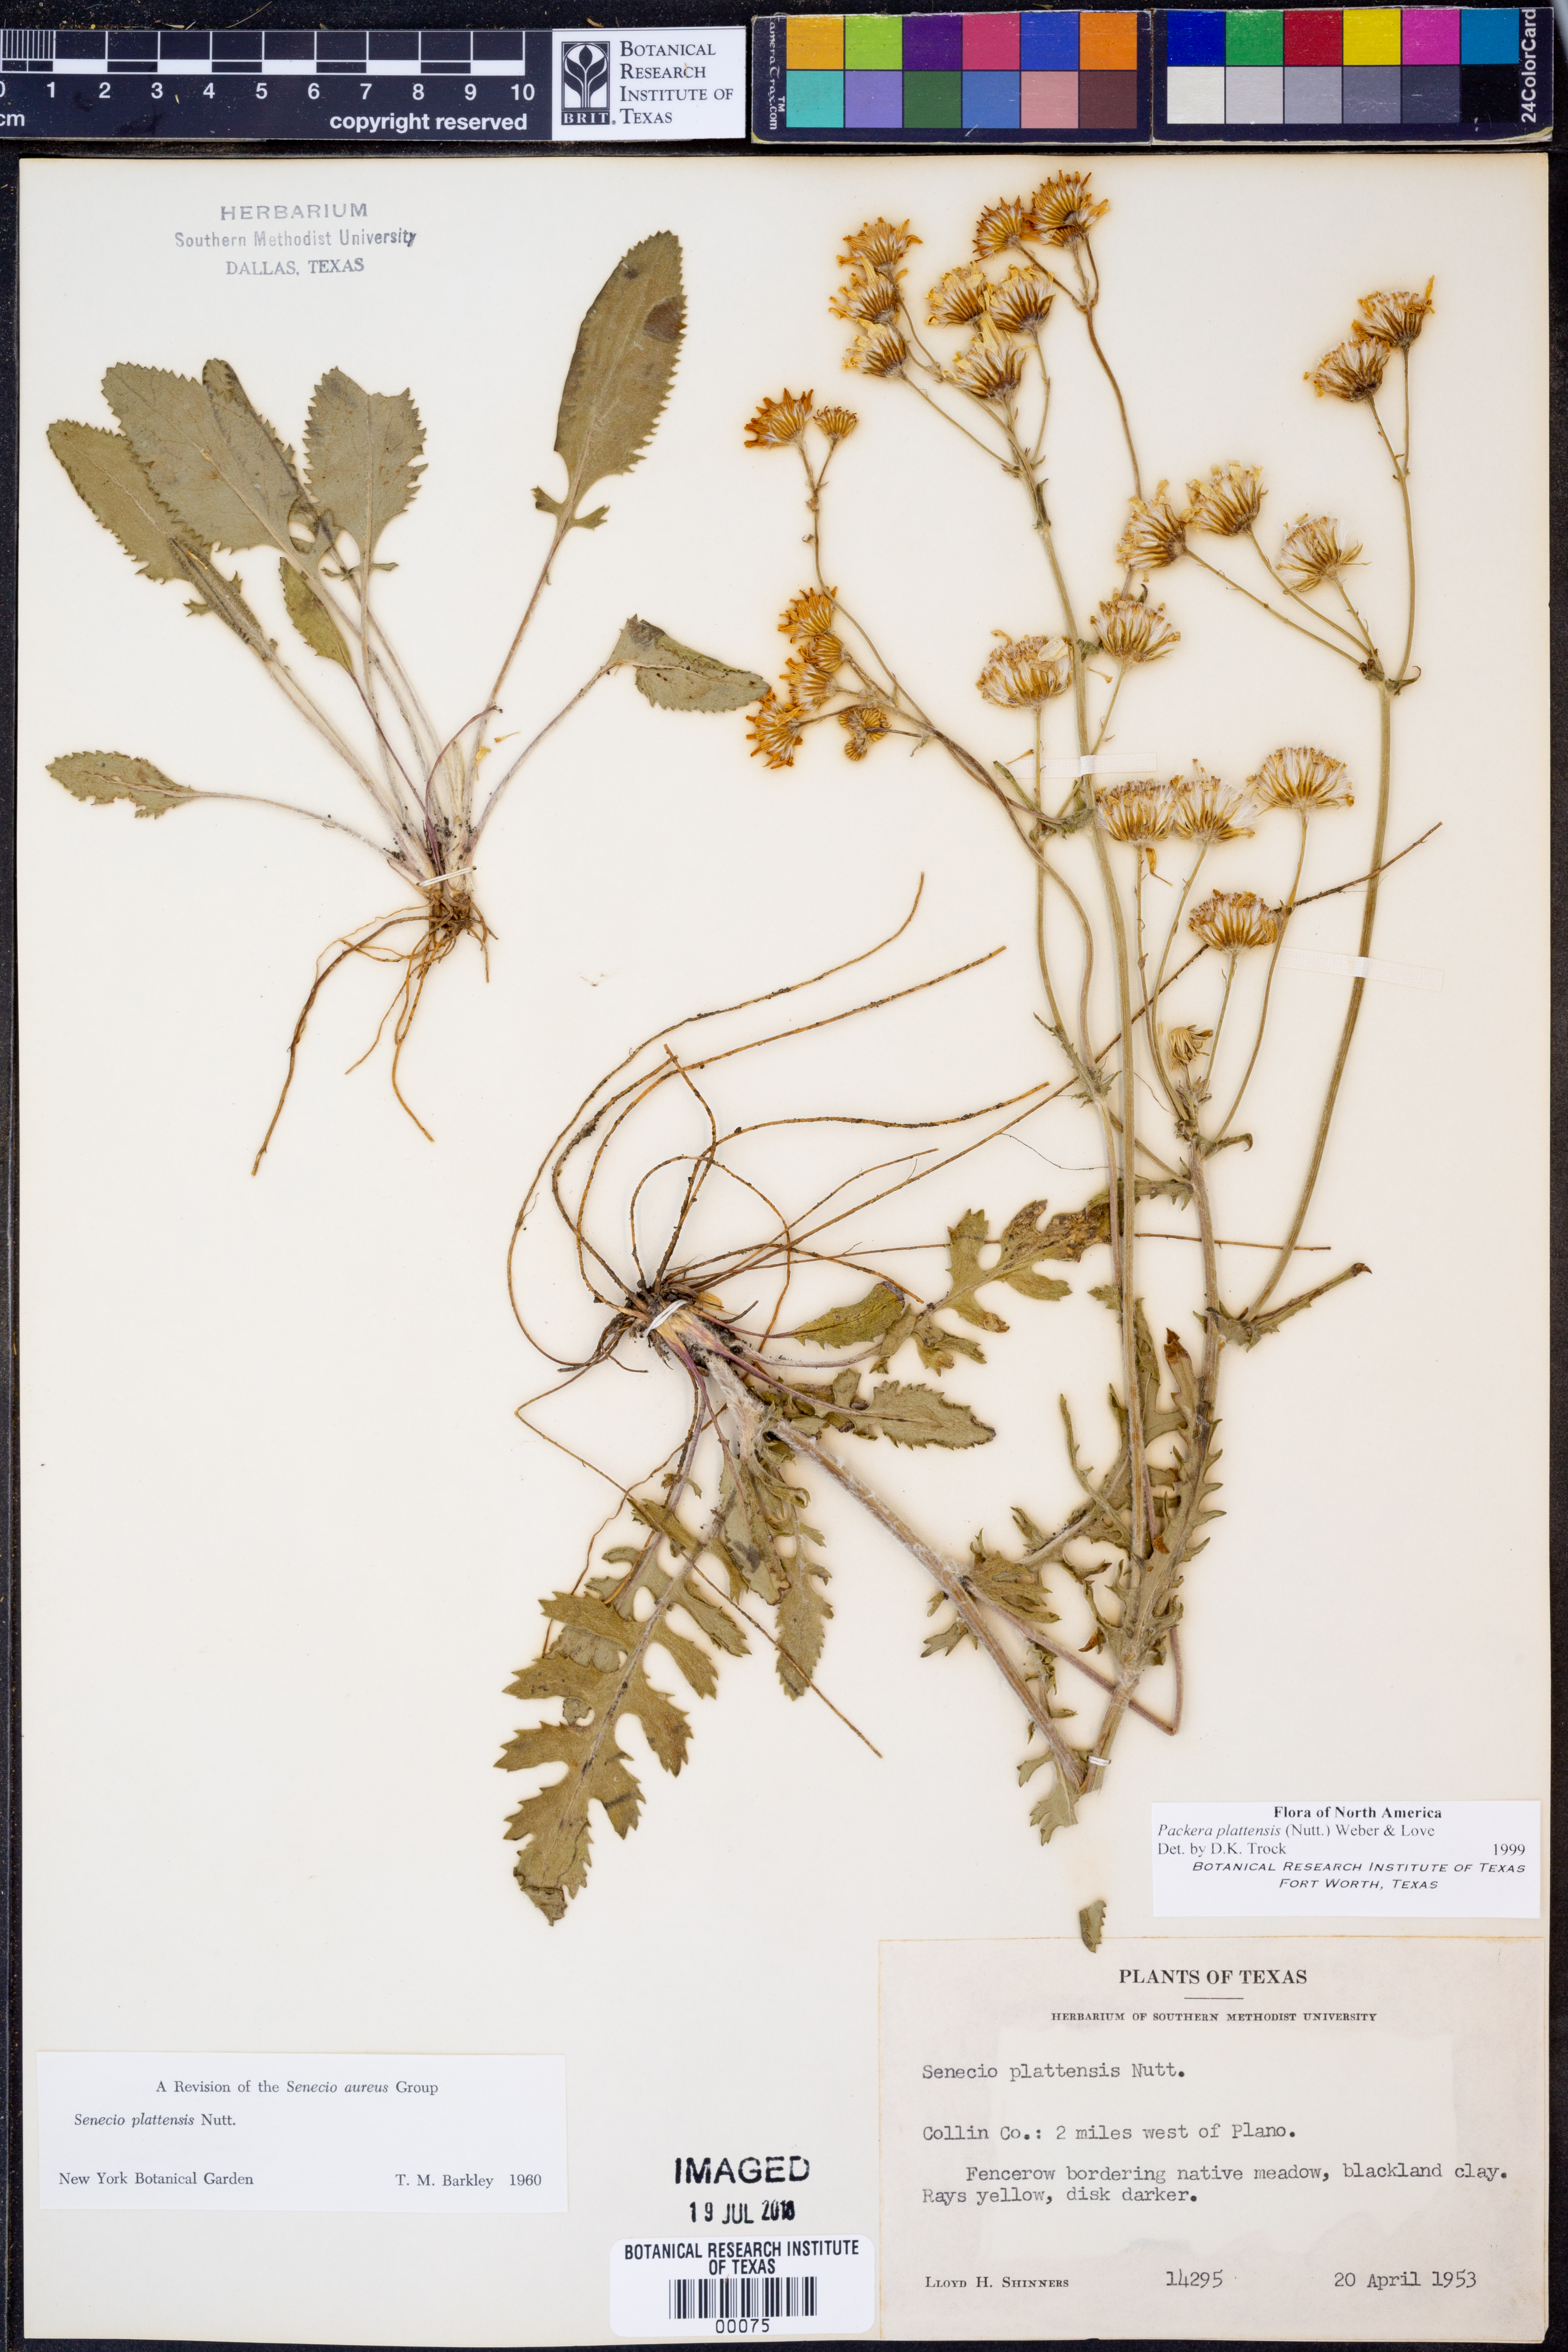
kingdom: Plantae
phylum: Tracheophyta
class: Magnoliopsida
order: Asterales
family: Asteraceae
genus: Packera
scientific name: Packera plattensis
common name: Prairie groundsel
